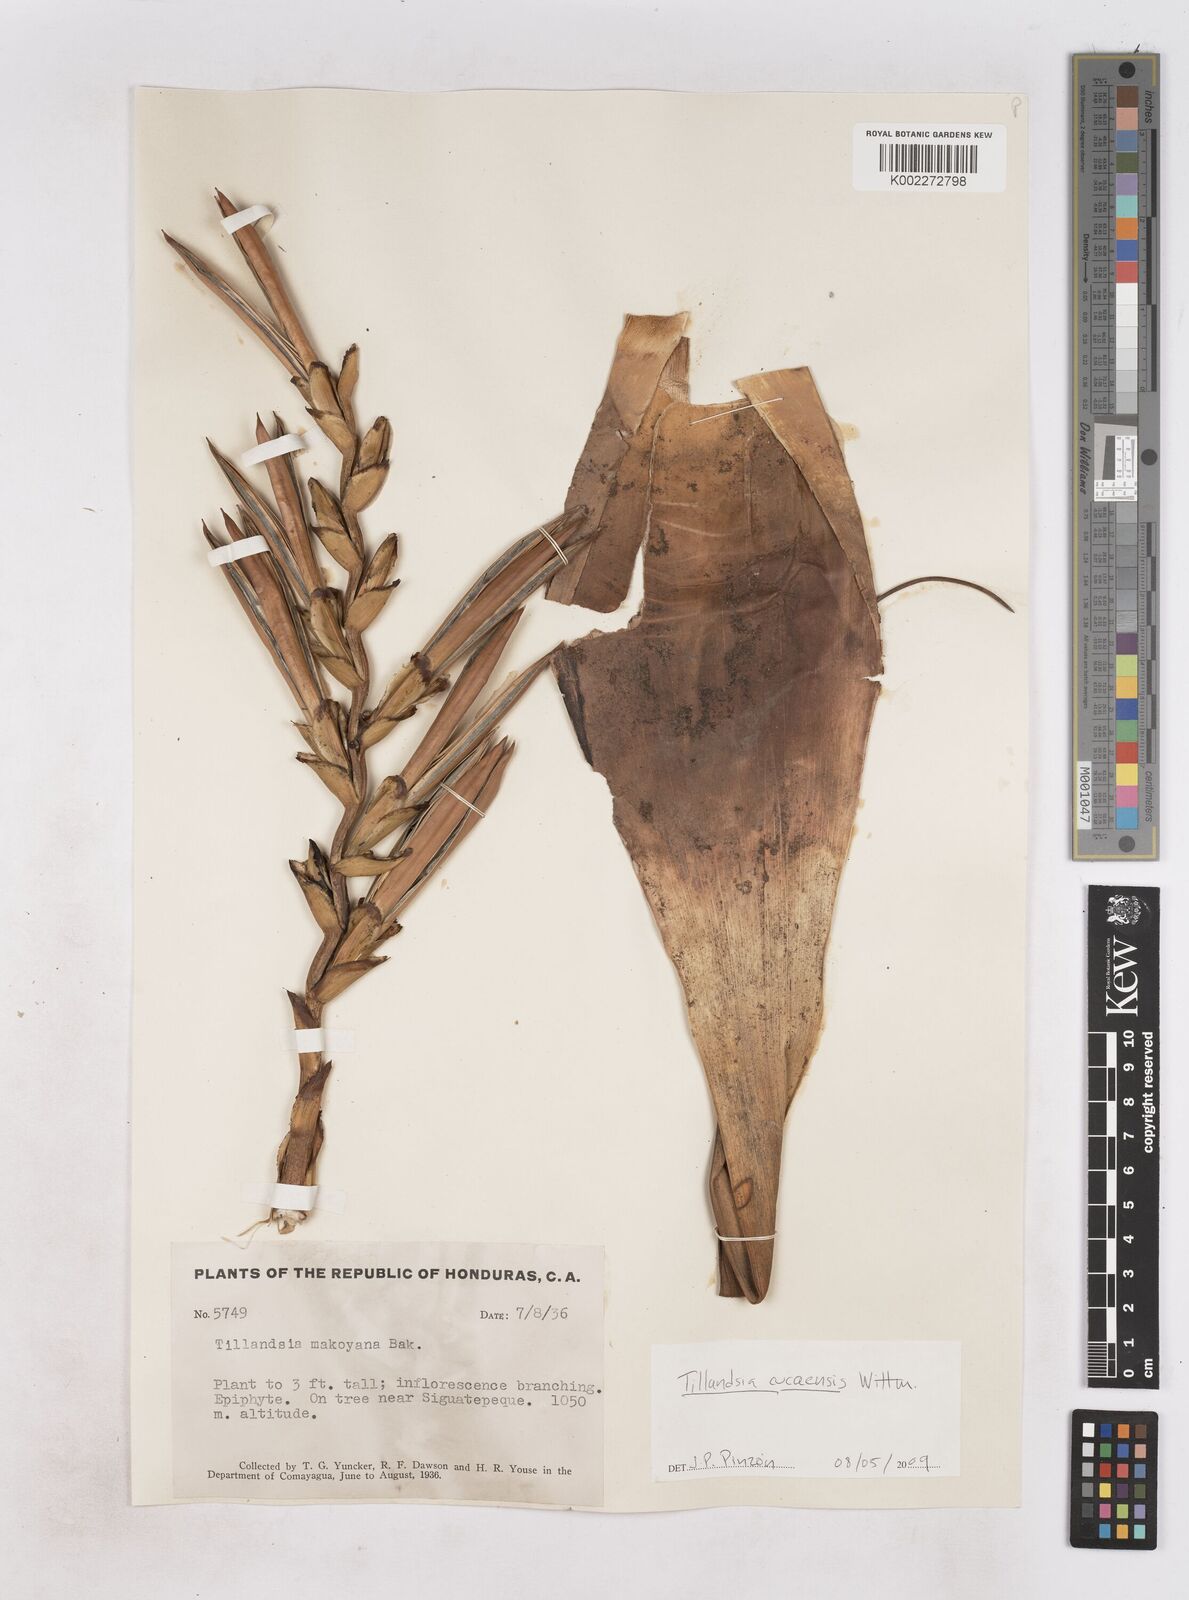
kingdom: Plantae
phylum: Tracheophyta
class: Liliopsida
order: Poales
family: Bromeliaceae
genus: Tillandsia
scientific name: Tillandsia makoyana
